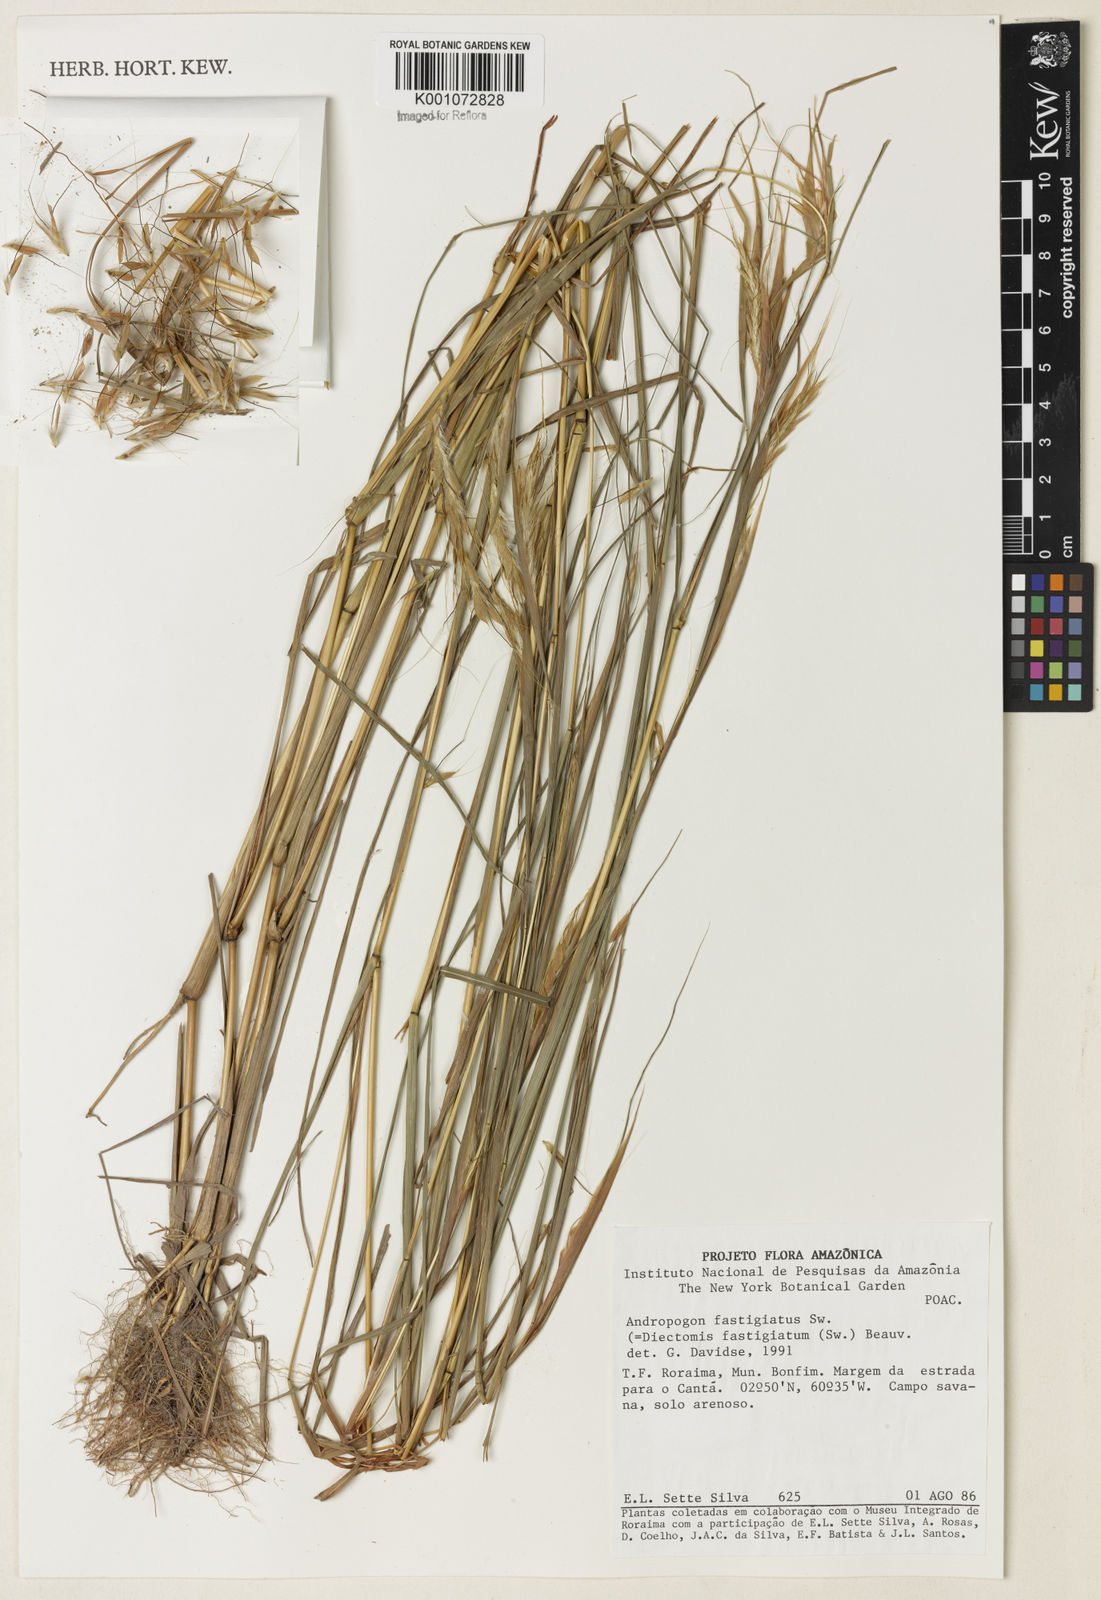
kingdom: Plantae
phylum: Tracheophyta
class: Liliopsida
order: Poales
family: Poaceae
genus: Diectomis
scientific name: Diectomis fastigiata
